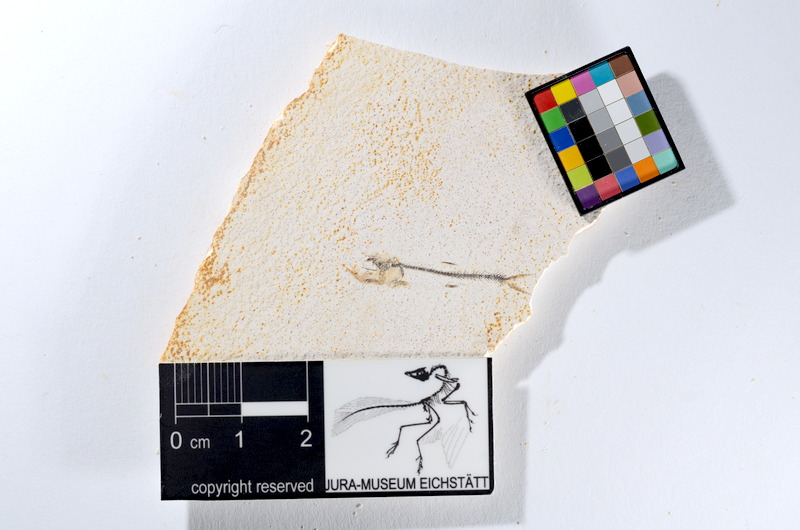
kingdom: Animalia
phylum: Chordata
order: Salmoniformes
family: Orthogonikleithridae
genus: Orthogonikleithrus
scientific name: Orthogonikleithrus hoelli
